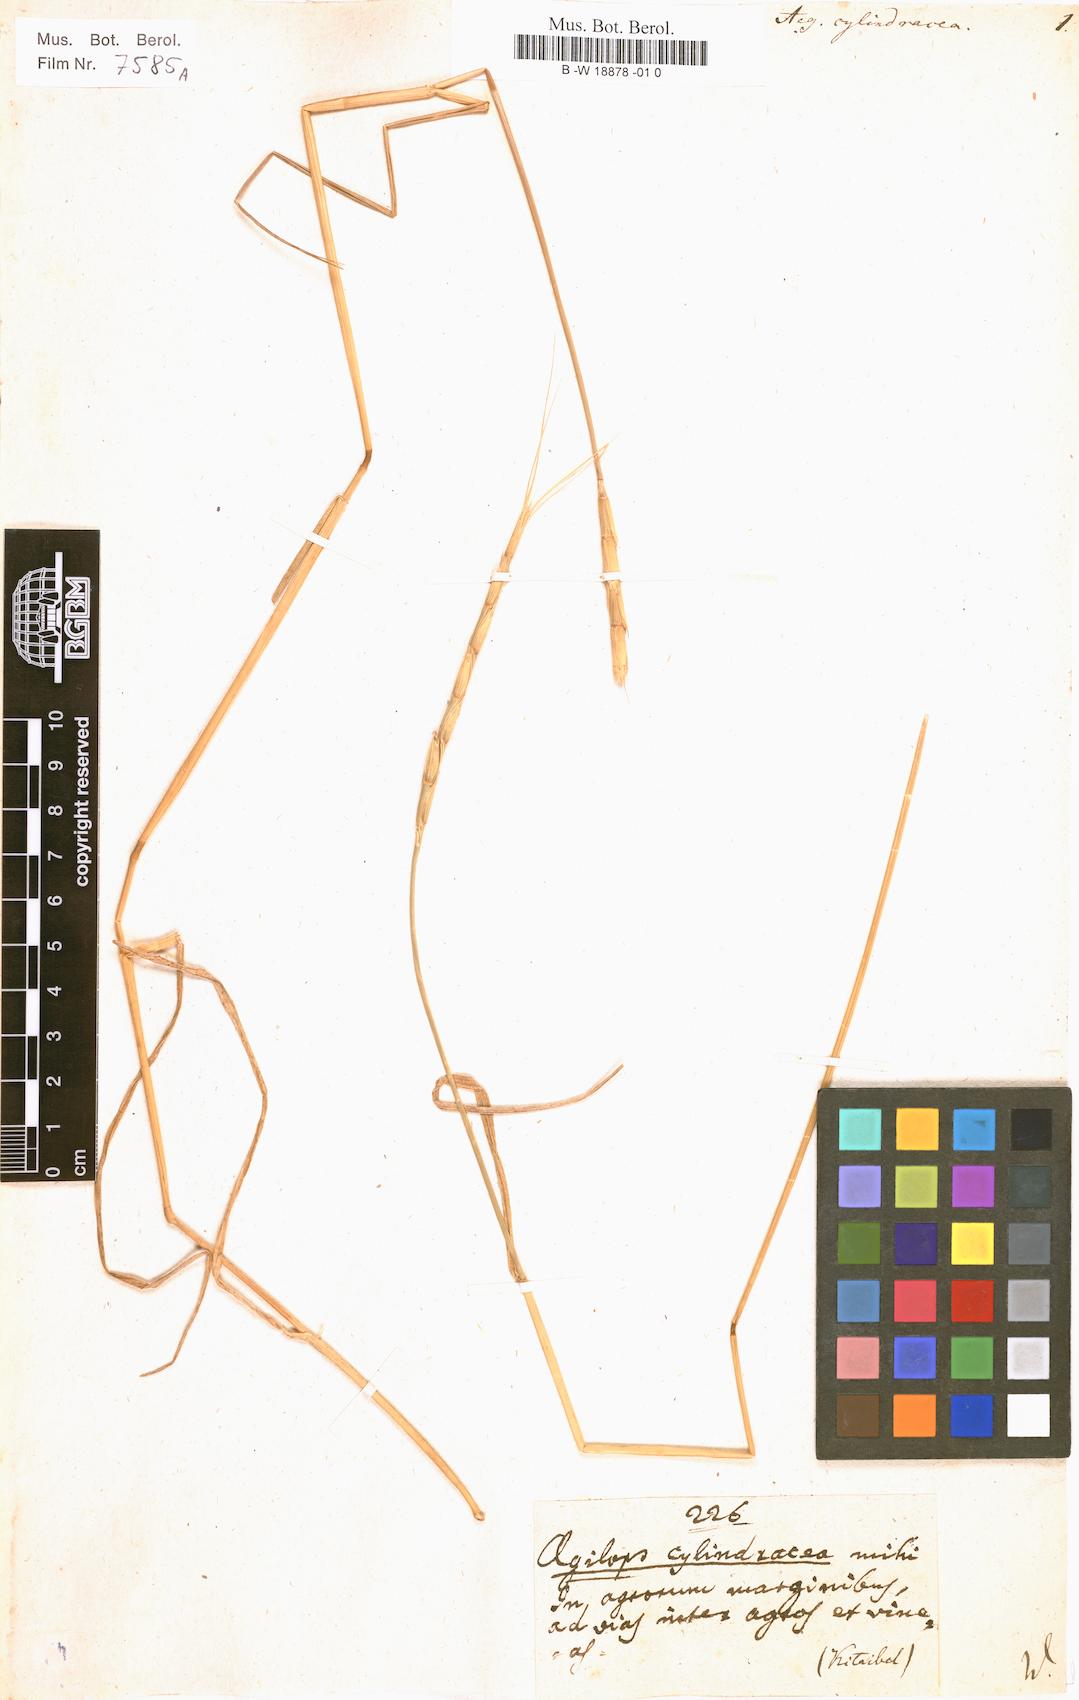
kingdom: Plantae
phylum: Tracheophyta
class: Liliopsida
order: Poales
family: Poaceae
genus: Aegilops
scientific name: Aegilops cylindrica
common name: Jointed goatgrass
